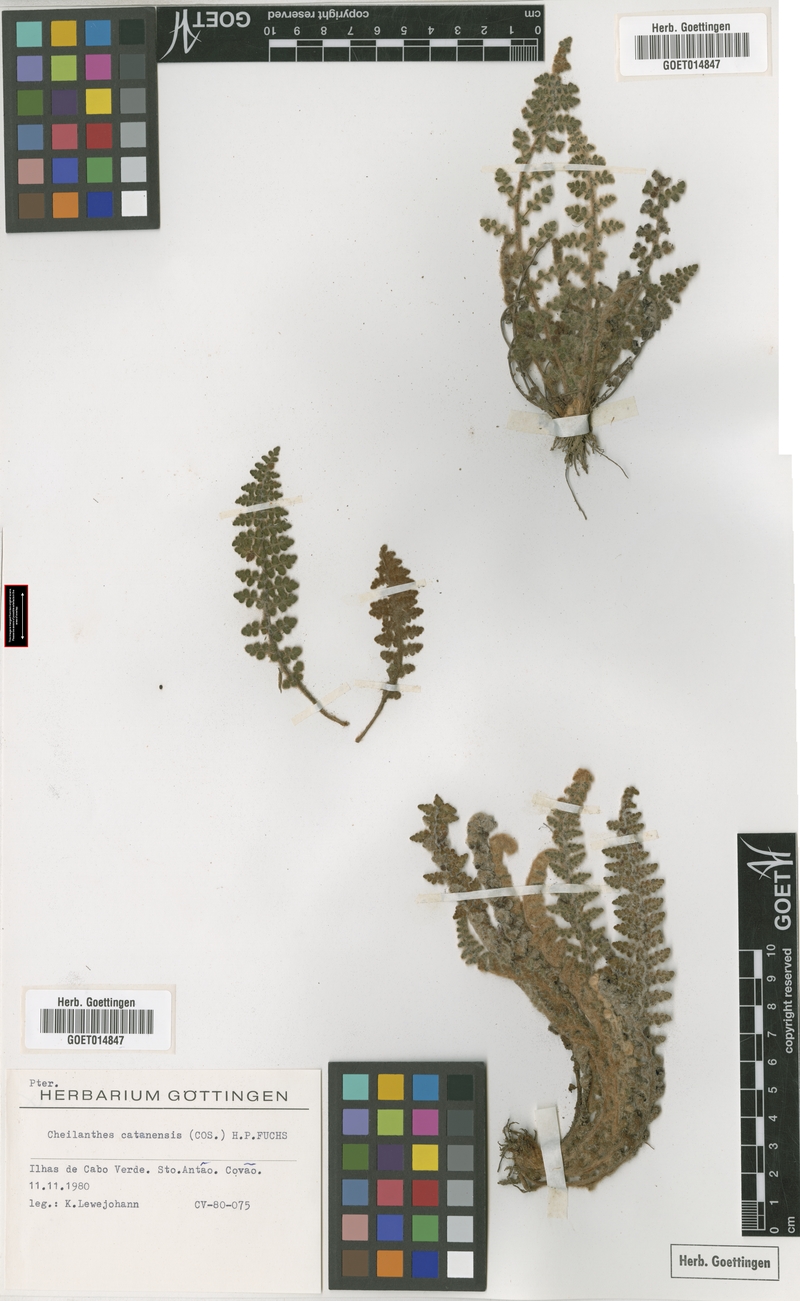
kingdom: Plantae
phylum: Tracheophyta
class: Polypodiopsida
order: Polypodiales
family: Pteridaceae
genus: Cosentinia
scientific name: Cosentinia vellea
